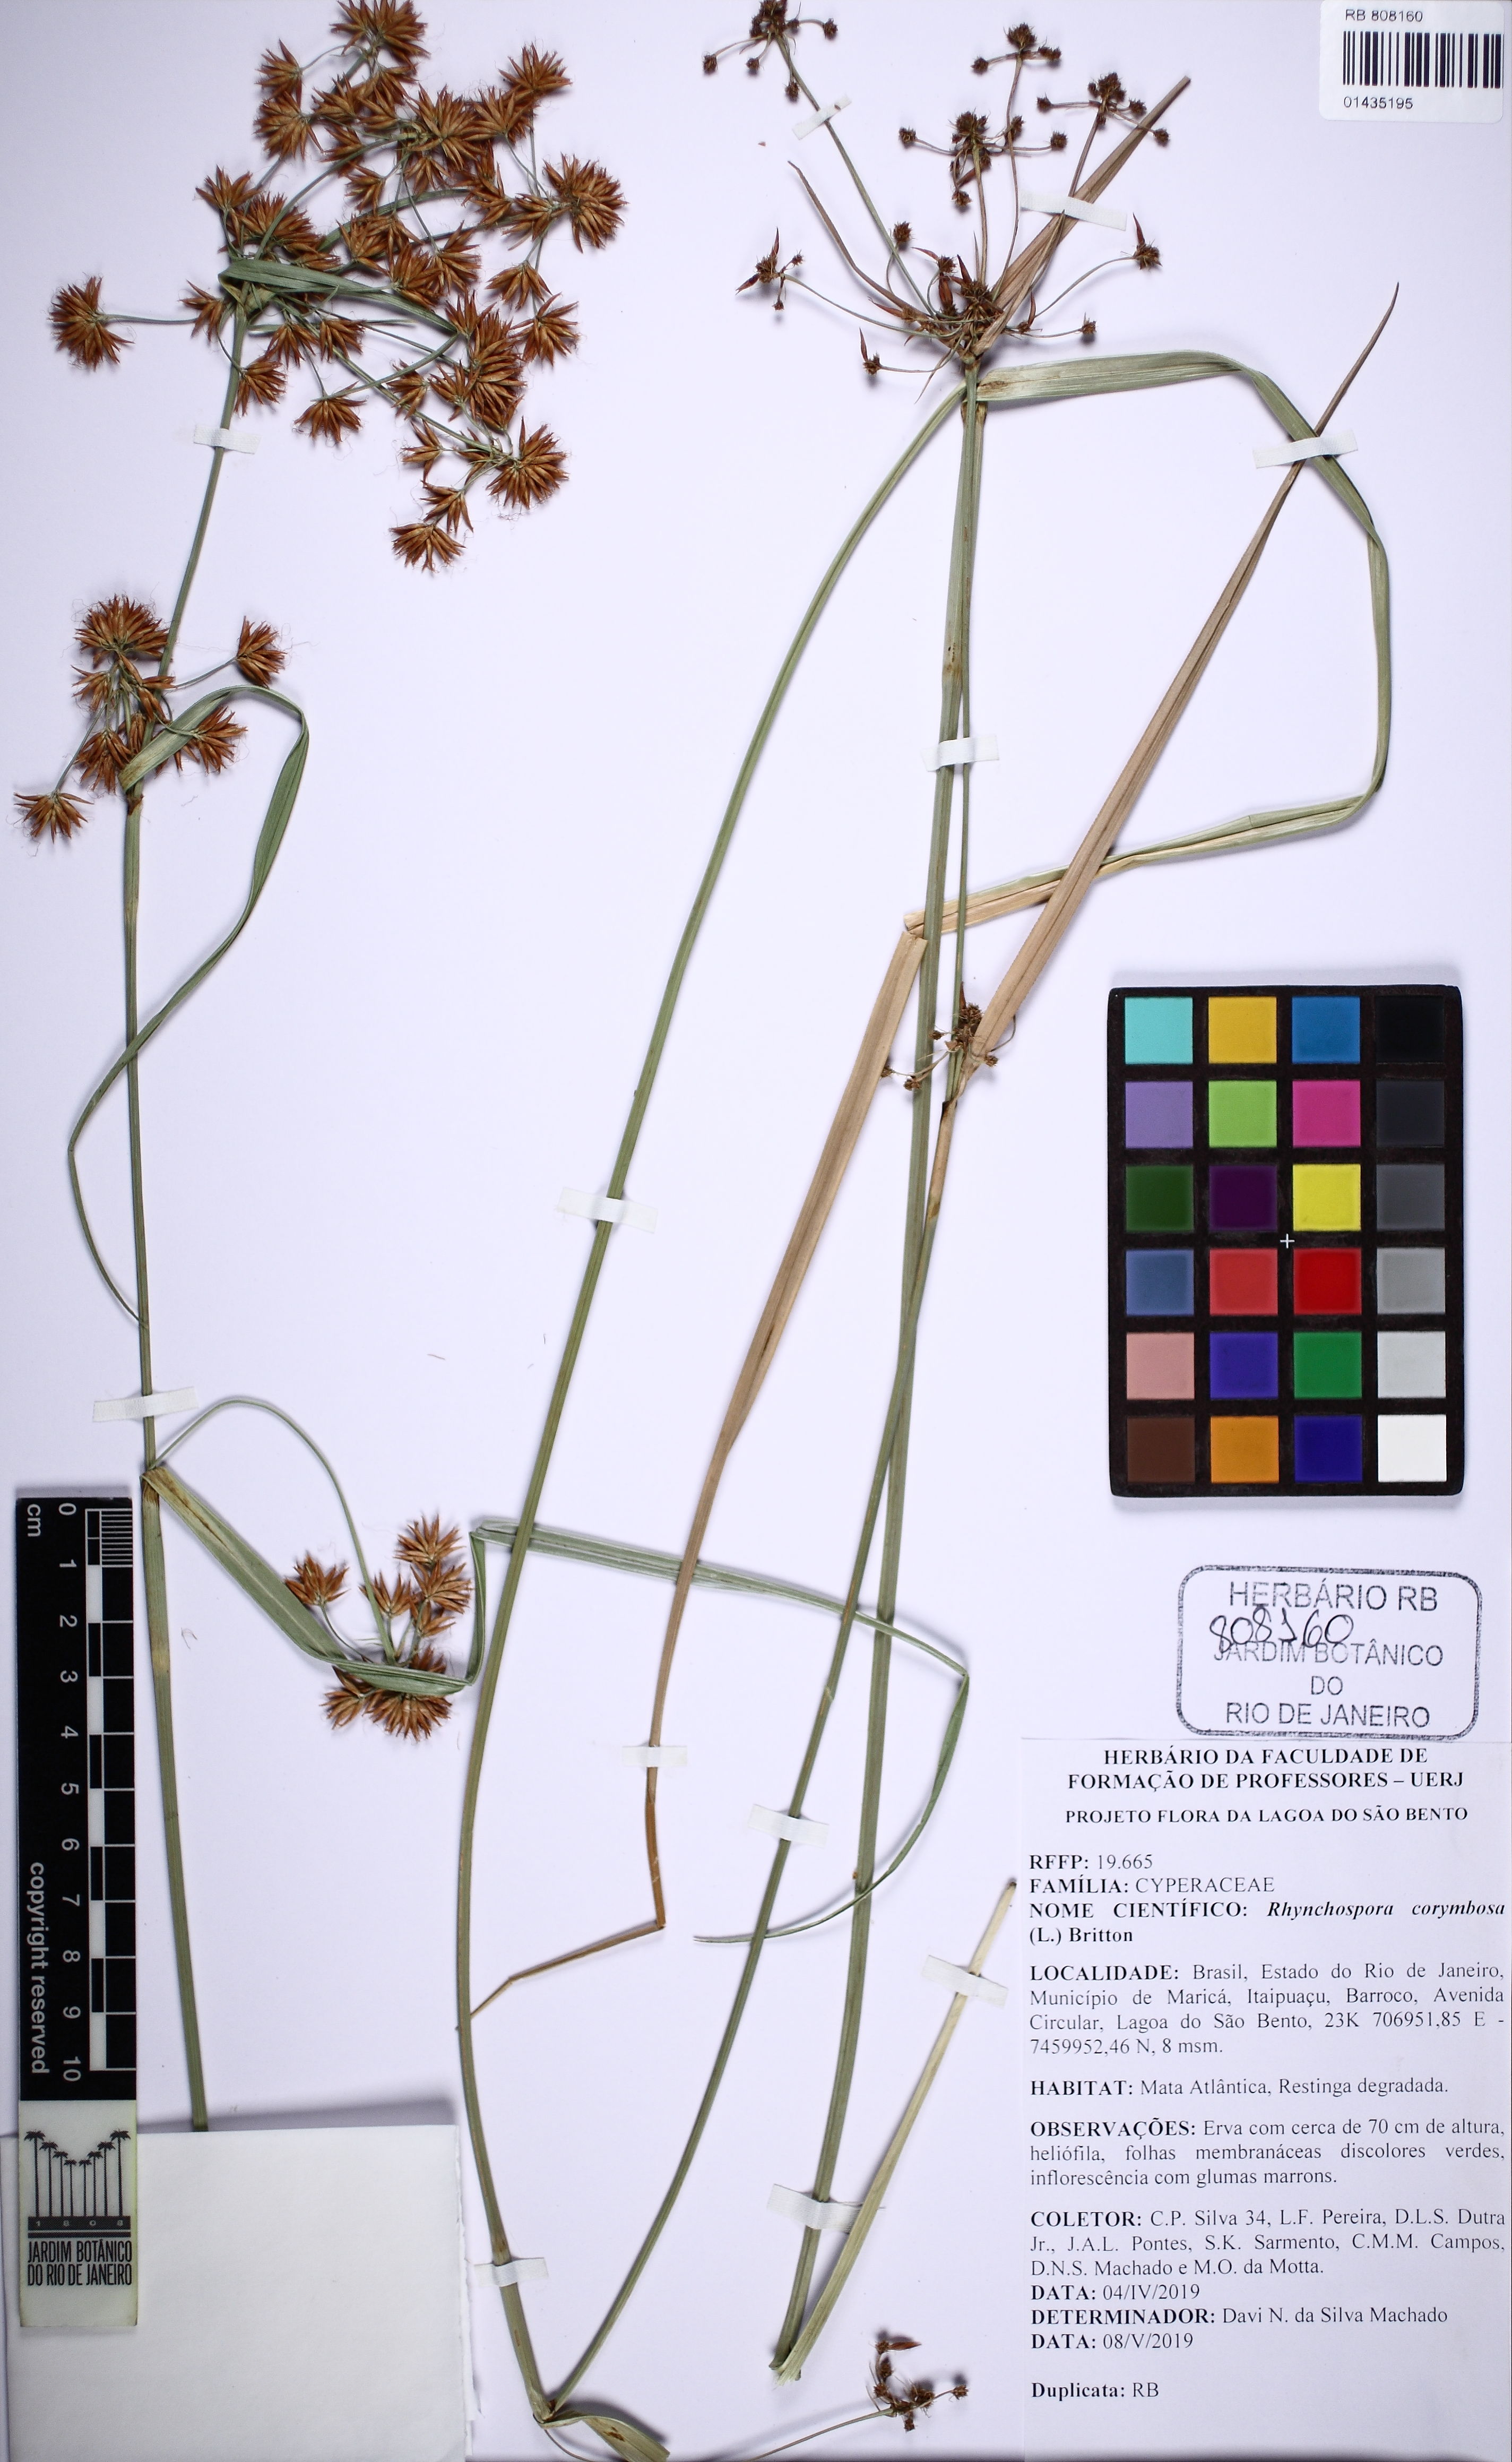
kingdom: Plantae
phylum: Tracheophyta
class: Liliopsida
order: Poales
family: Cyperaceae
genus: Rhynchospora
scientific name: Rhynchospora corymbosa
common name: Golden beak sedge
